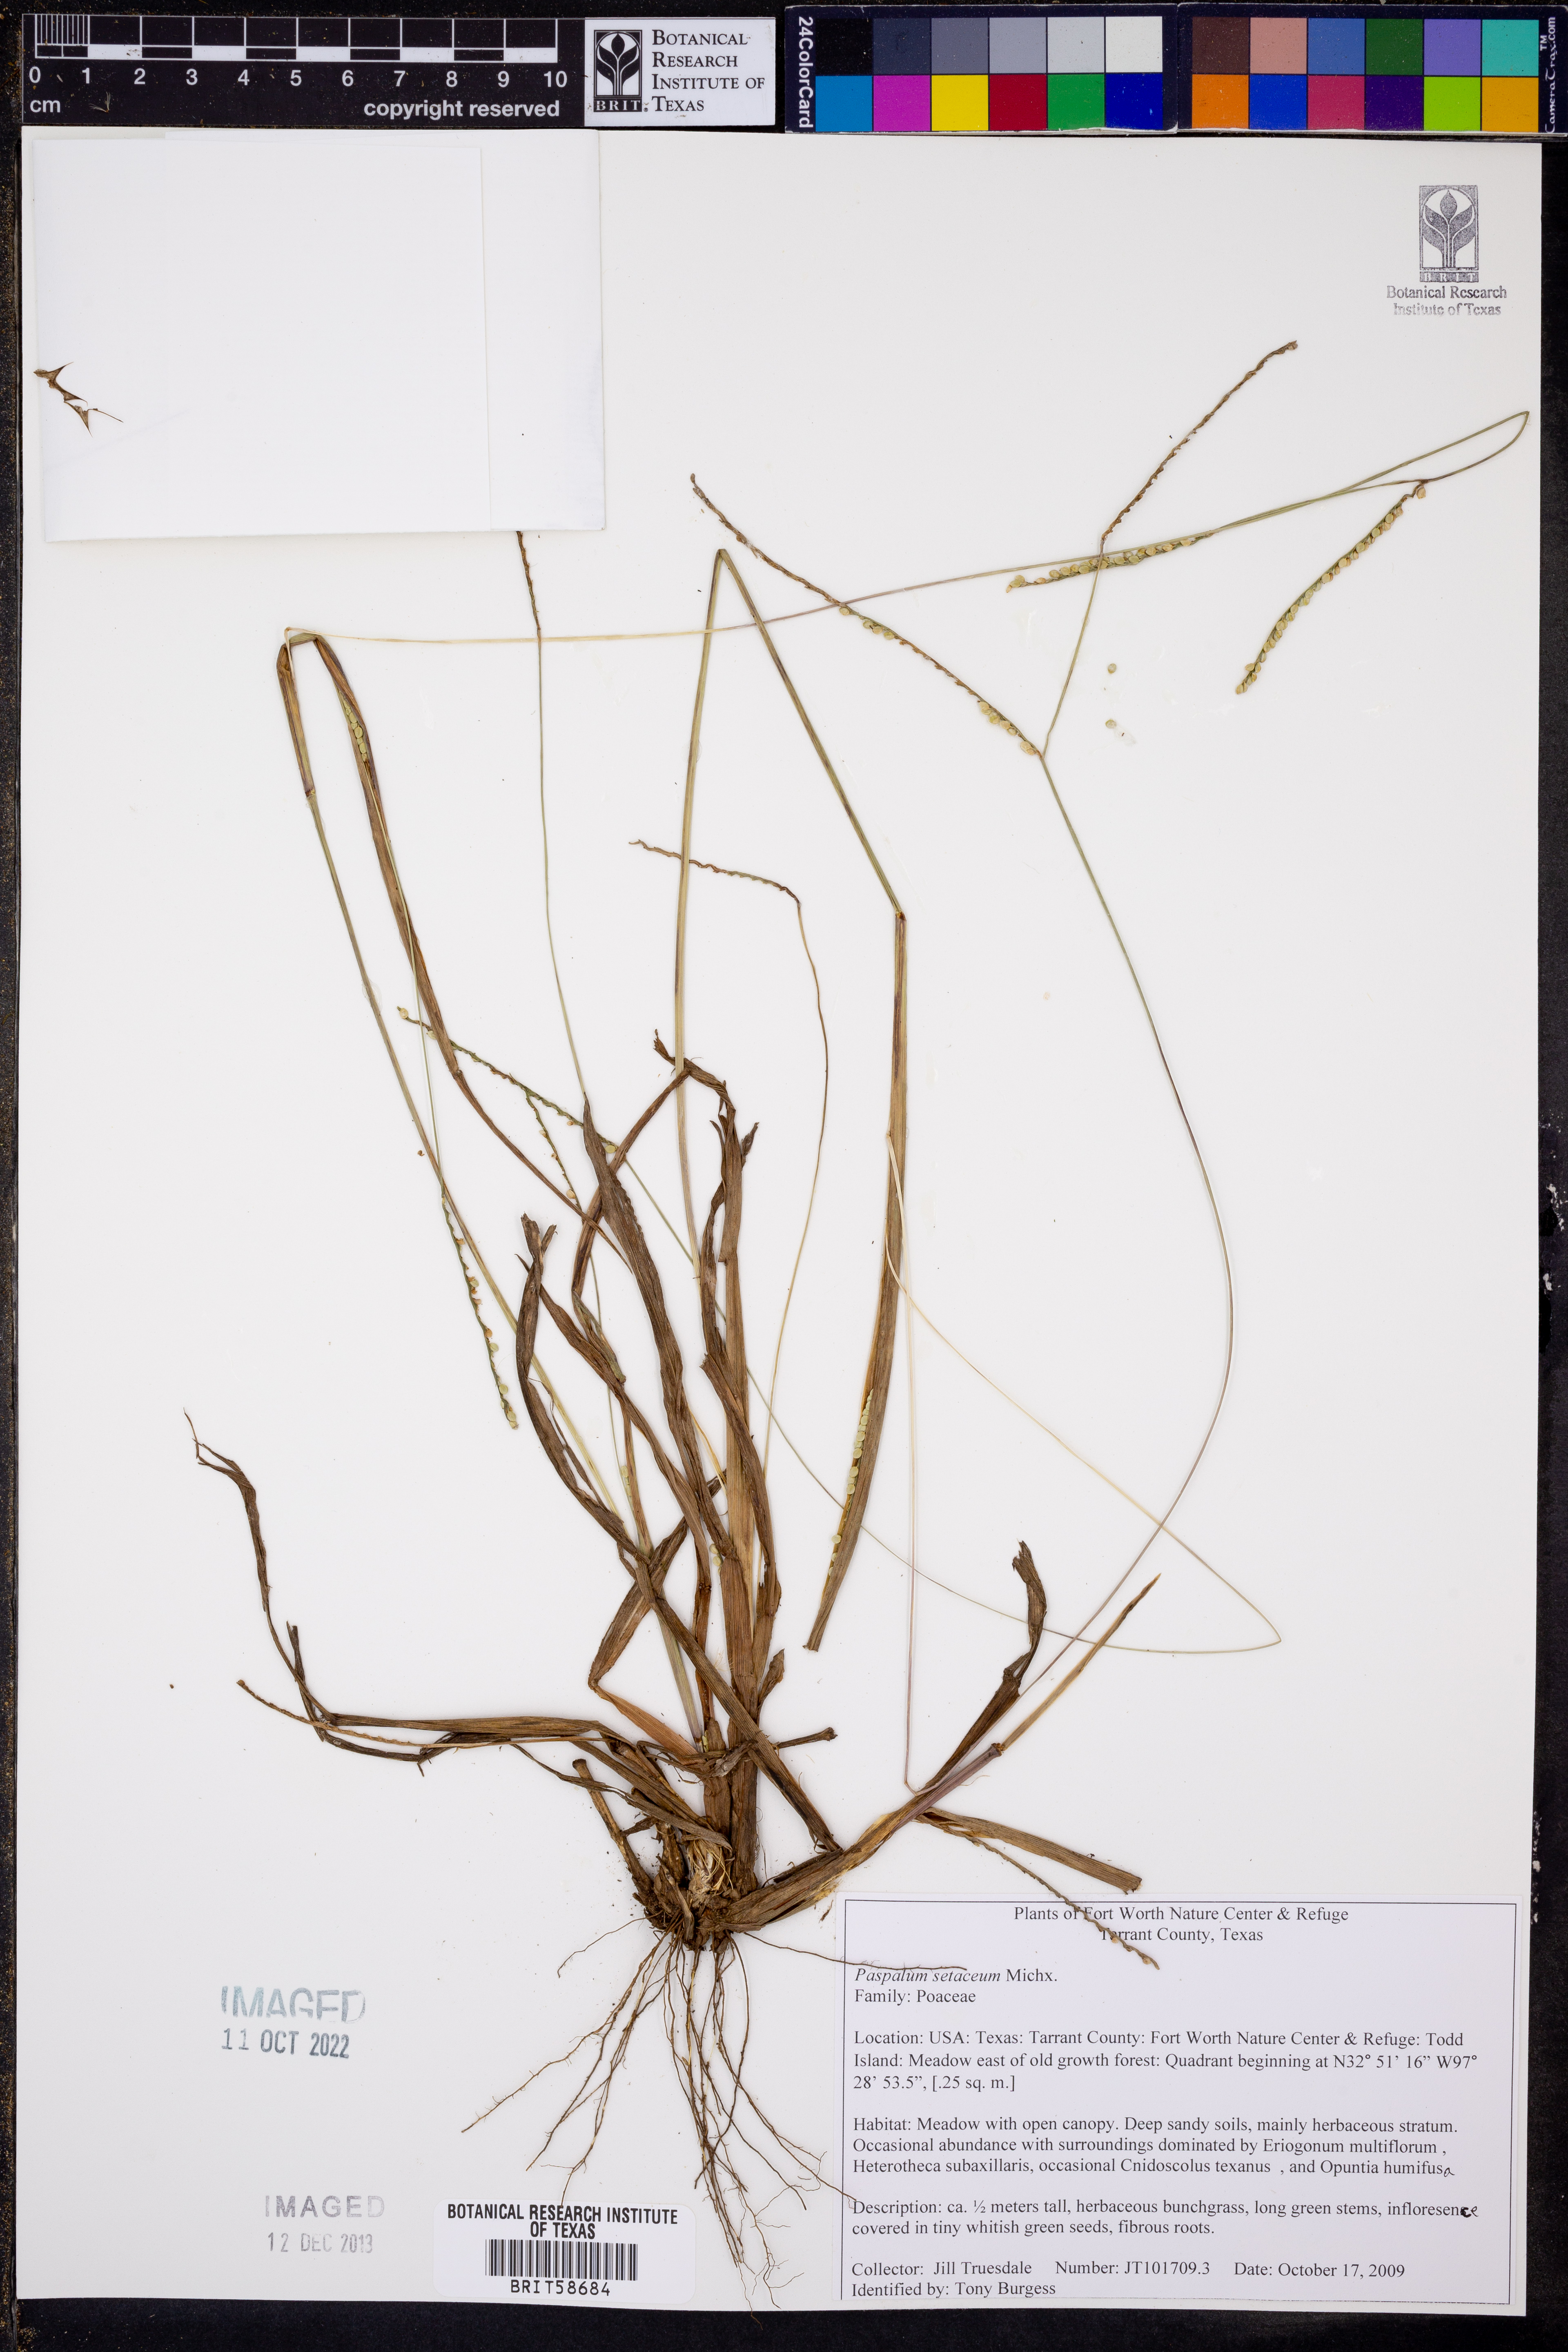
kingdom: Plantae
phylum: Tracheophyta
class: Liliopsida
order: Poales
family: Poaceae
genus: Paspalum
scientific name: Paspalum setaceum
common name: Slender paspalum
